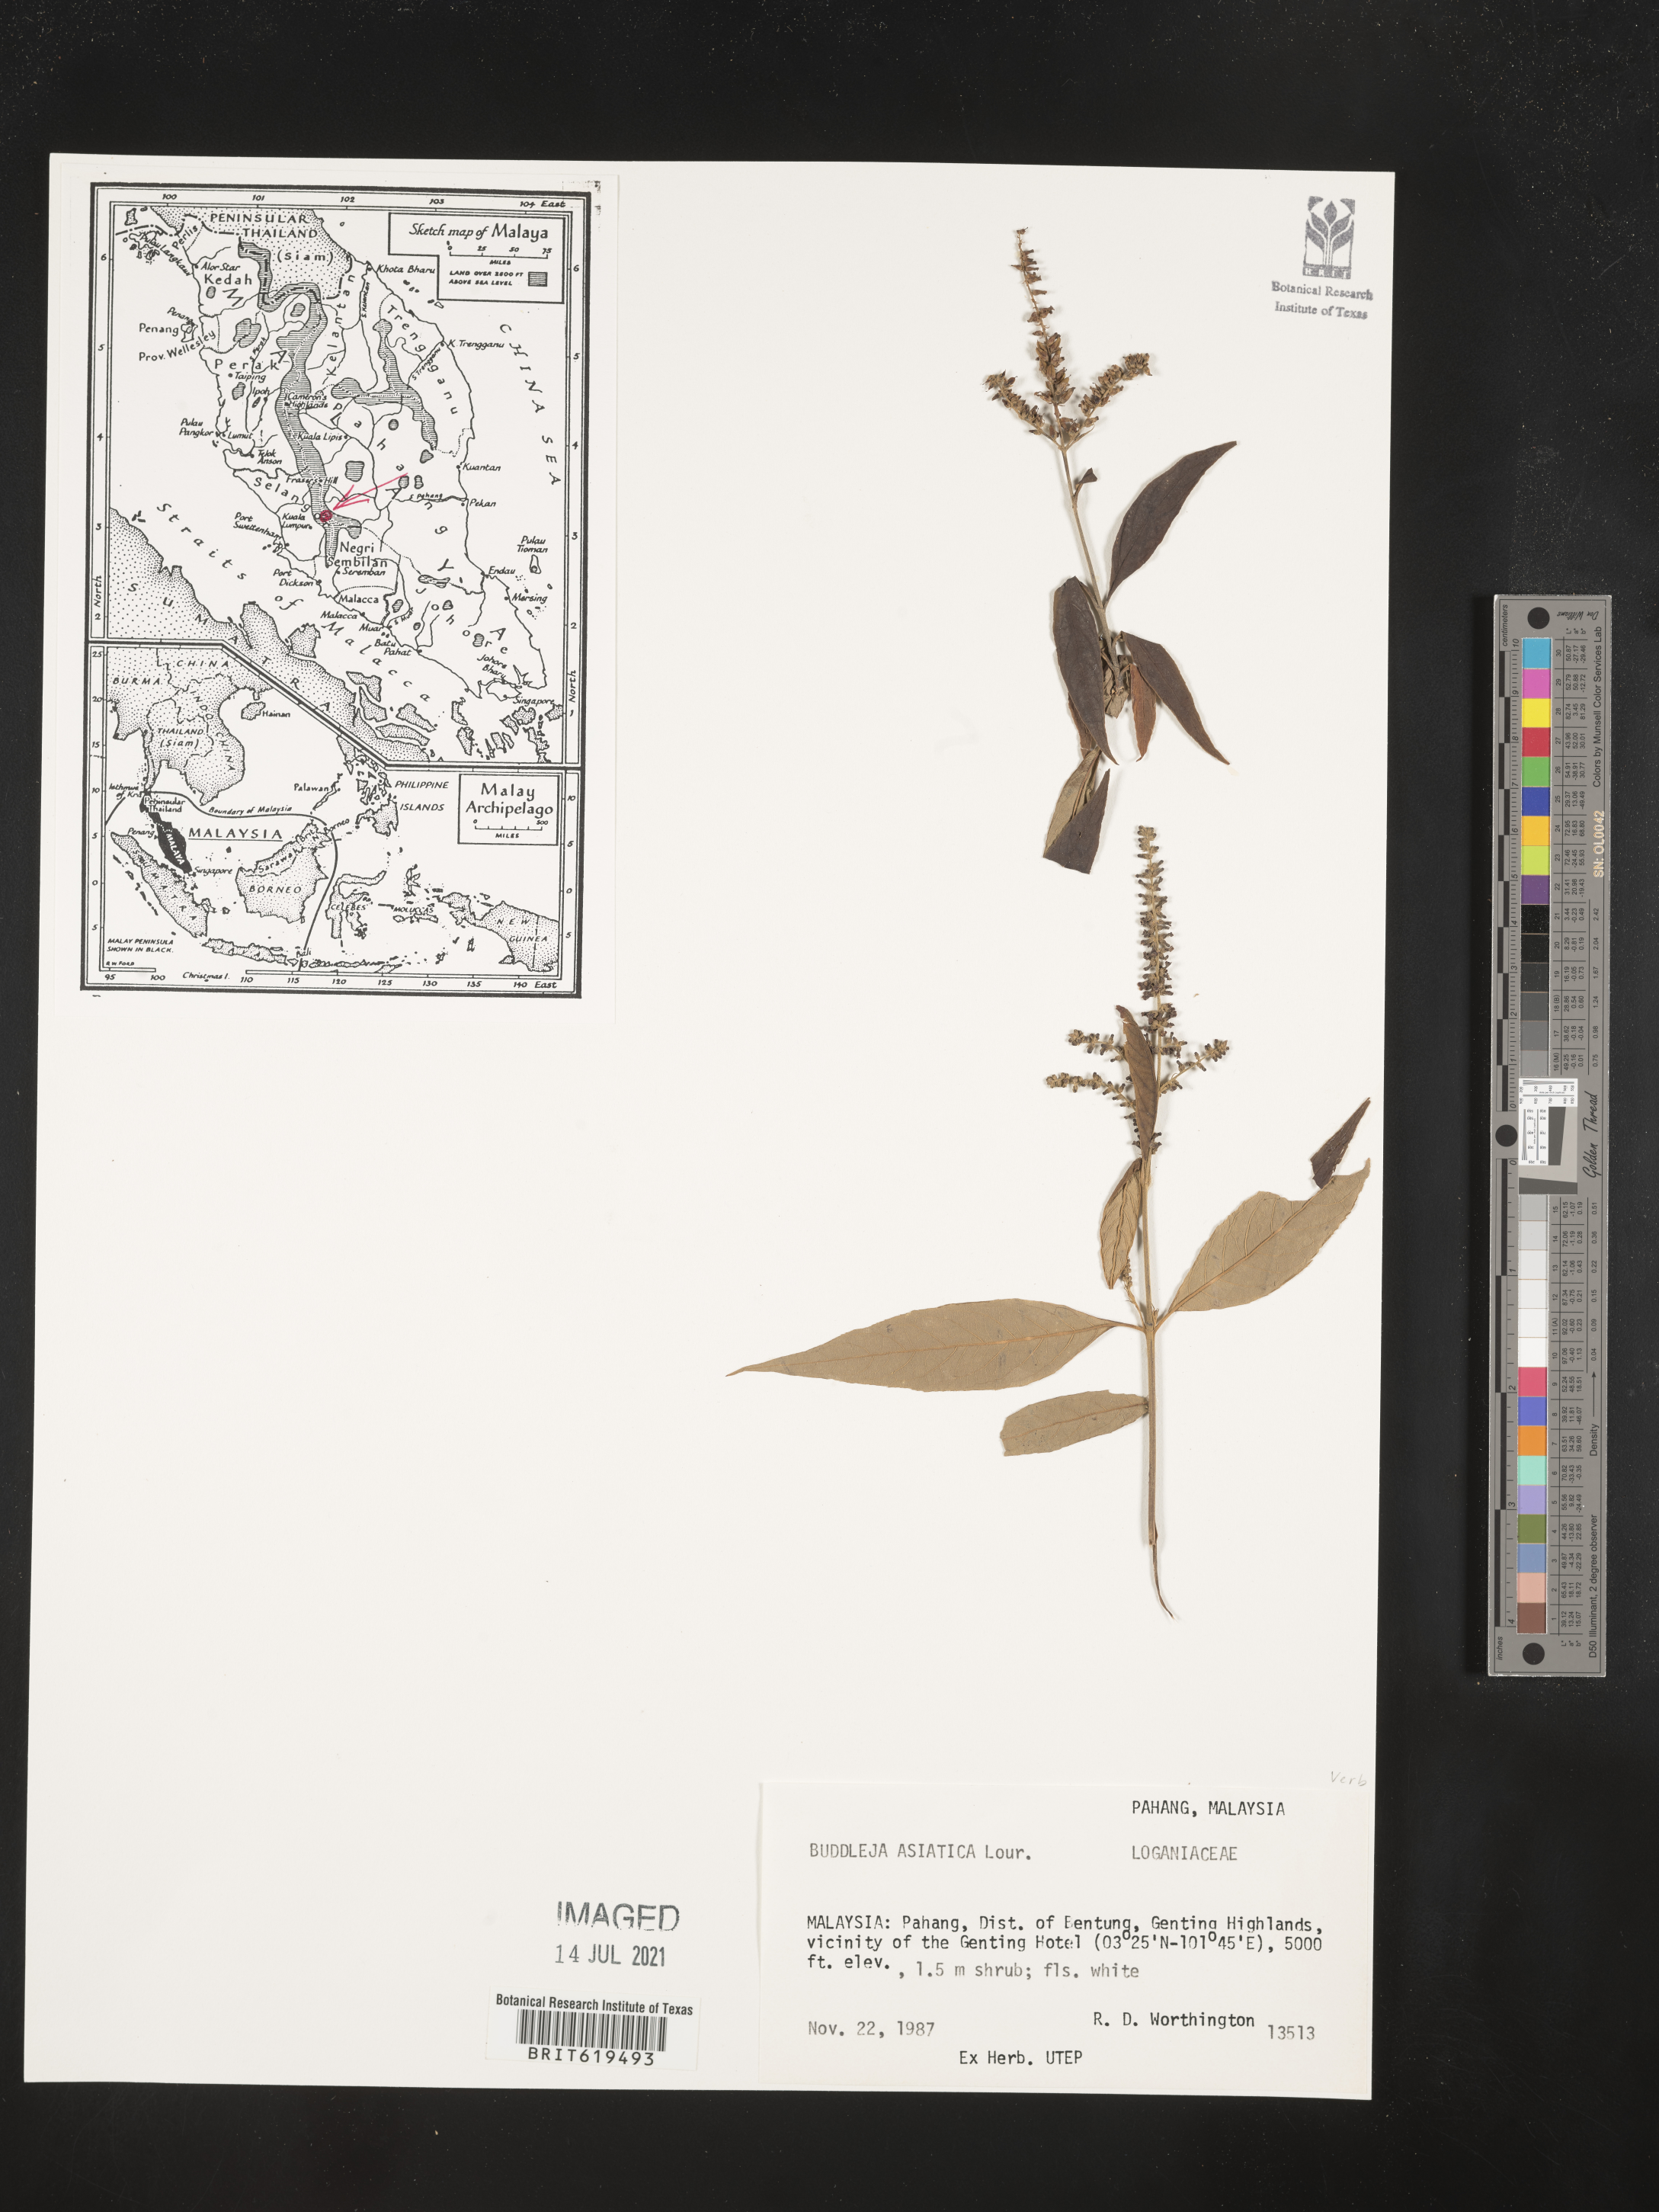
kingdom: Plantae
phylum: Tracheophyta
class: Magnoliopsida
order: Lamiales
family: Scrophulariaceae
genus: Buddleja
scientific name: Buddleja asiatica
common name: Dog tail
